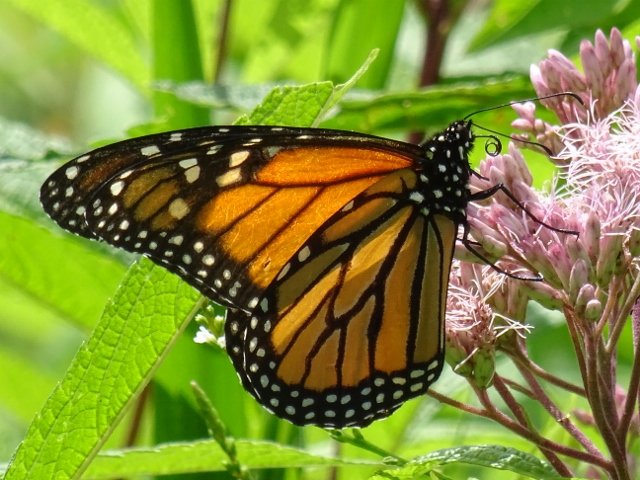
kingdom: Animalia
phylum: Arthropoda
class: Insecta
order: Lepidoptera
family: Nymphalidae
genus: Danaus
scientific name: Danaus plexippus
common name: Monarch
